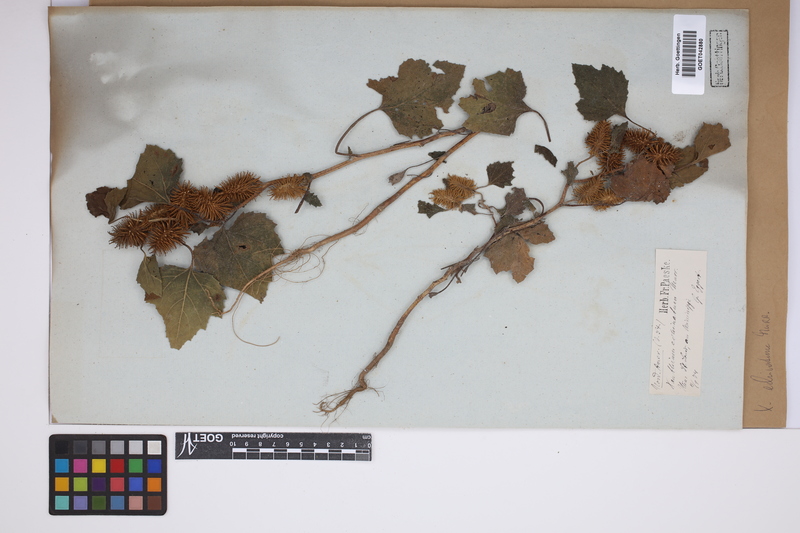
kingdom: Plantae
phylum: Tracheophyta
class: Magnoliopsida
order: Asterales
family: Asteraceae
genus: Xanthium
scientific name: Xanthium orientale
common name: Californian burr
